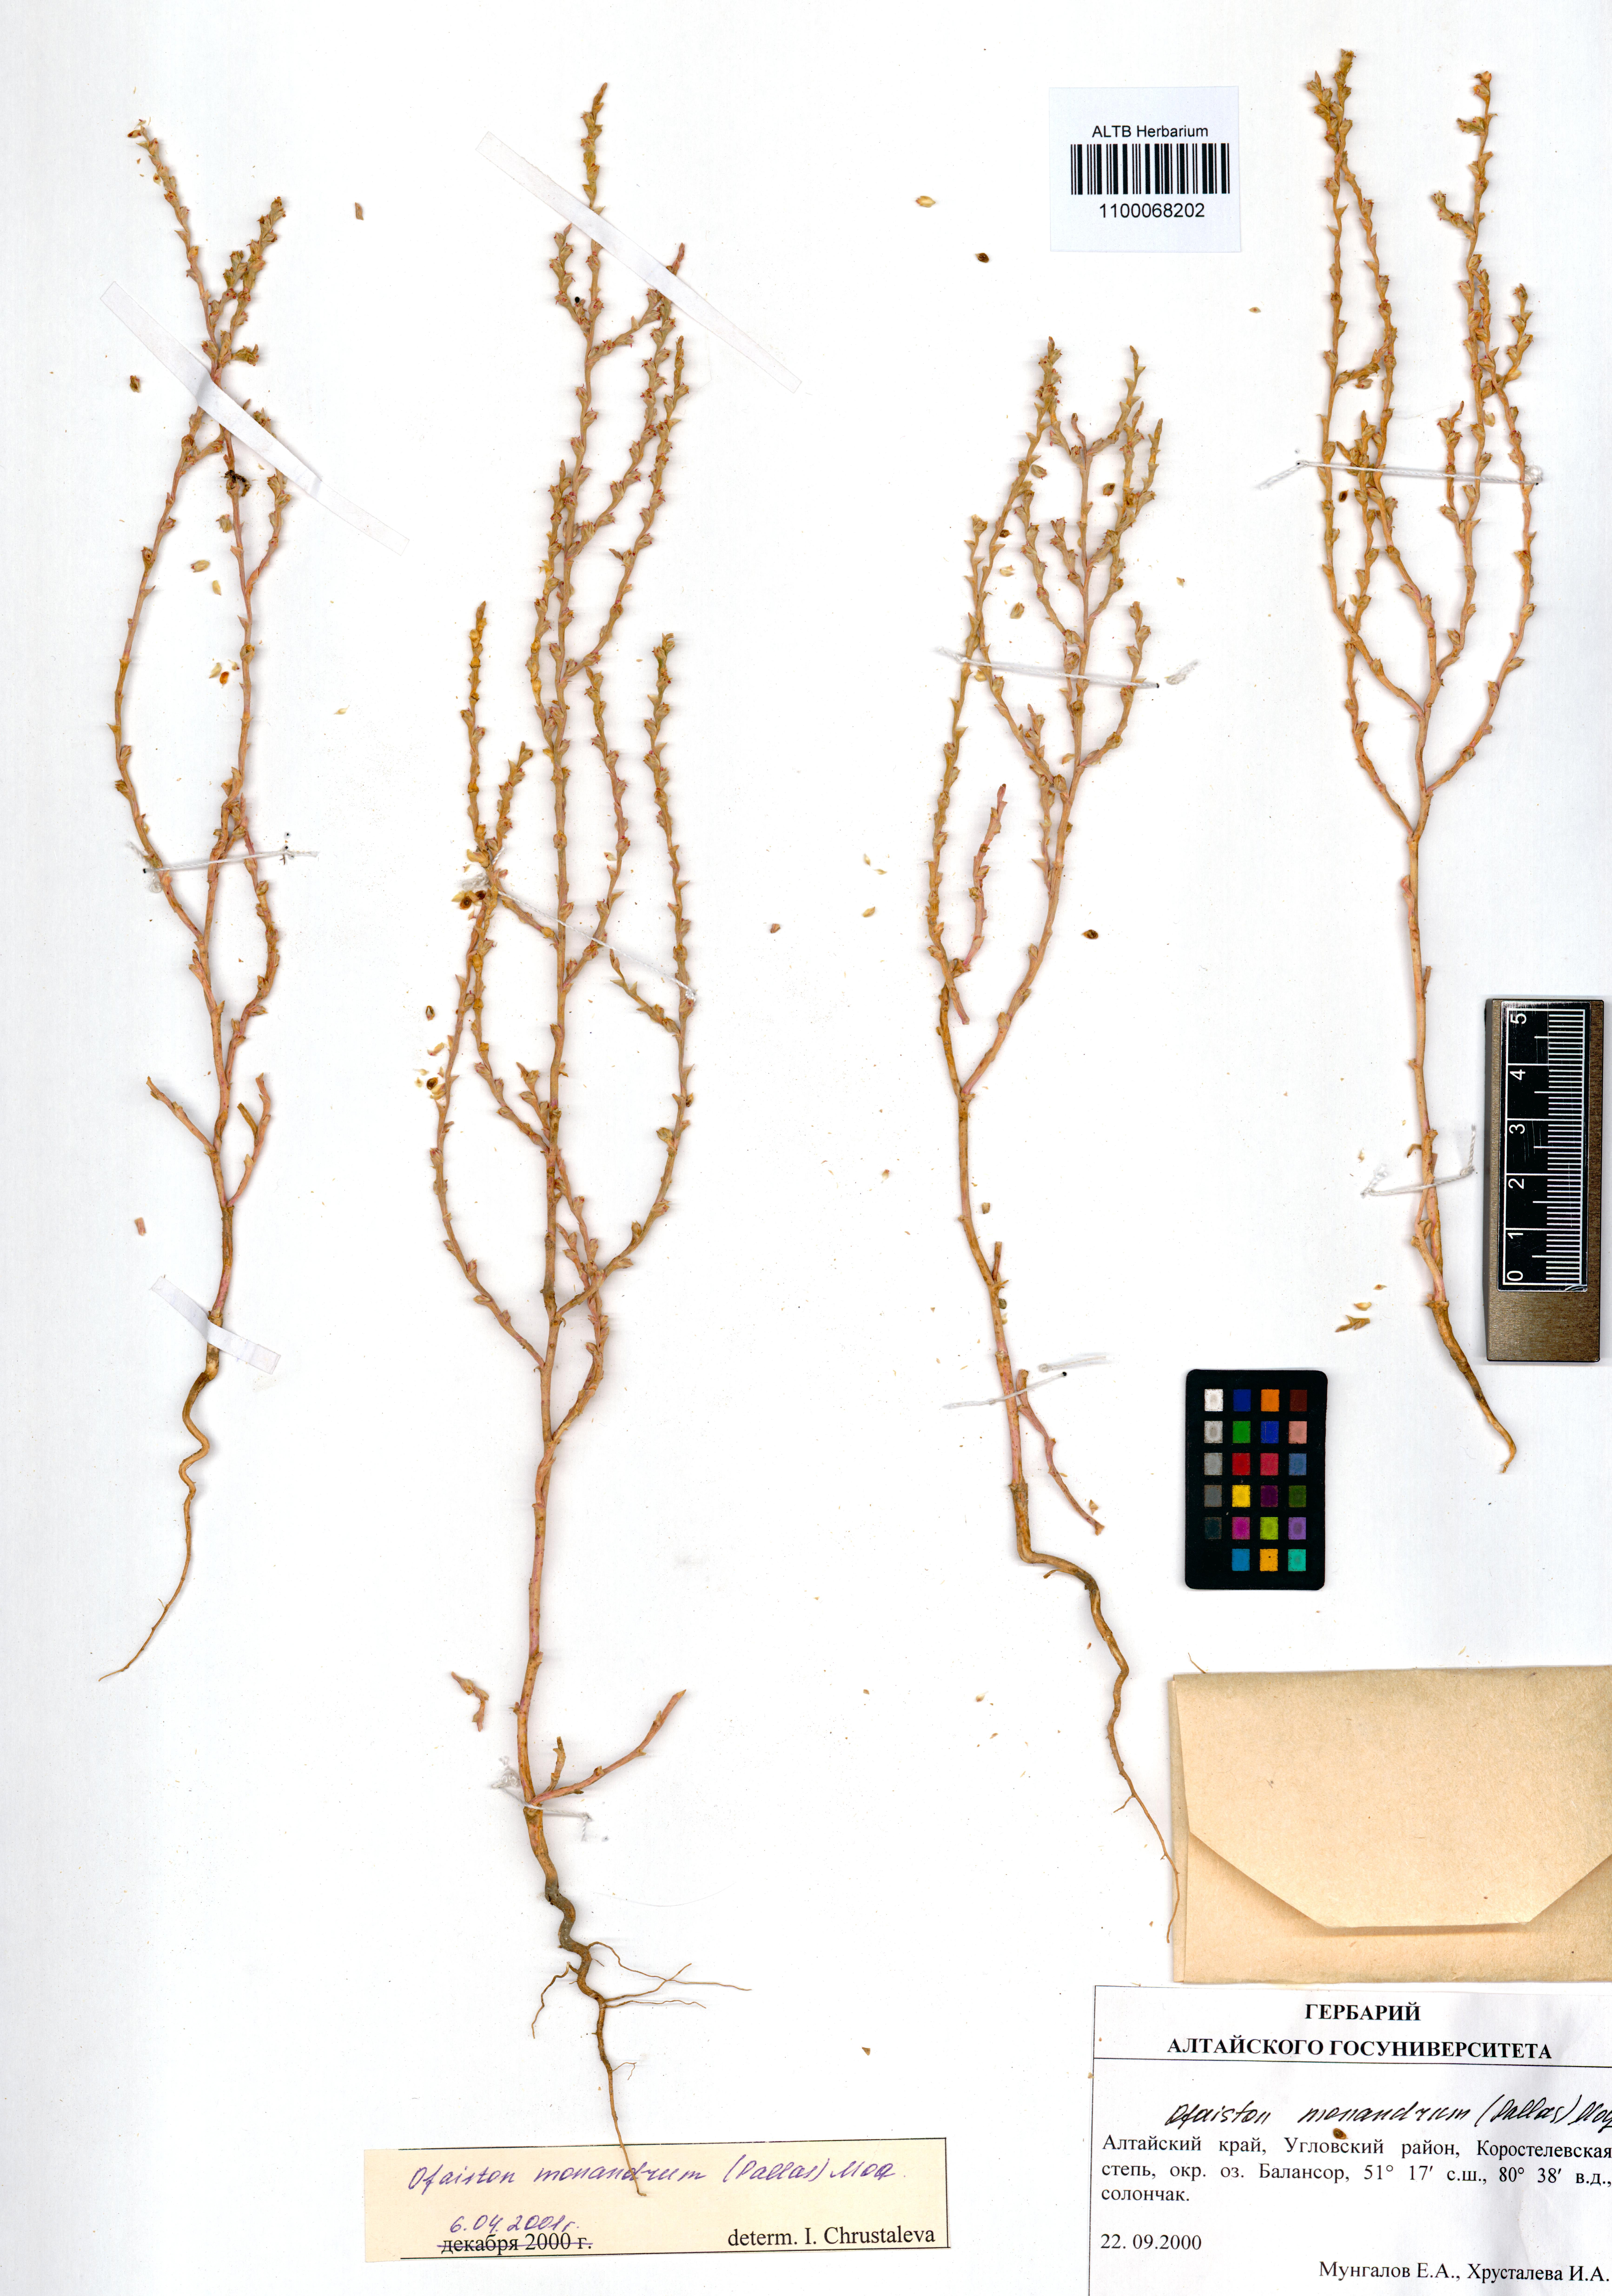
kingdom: Plantae
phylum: Tracheophyta
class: Magnoliopsida
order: Caryophyllales
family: Amaranthaceae
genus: Ofaiston
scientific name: Ofaiston monandrum
